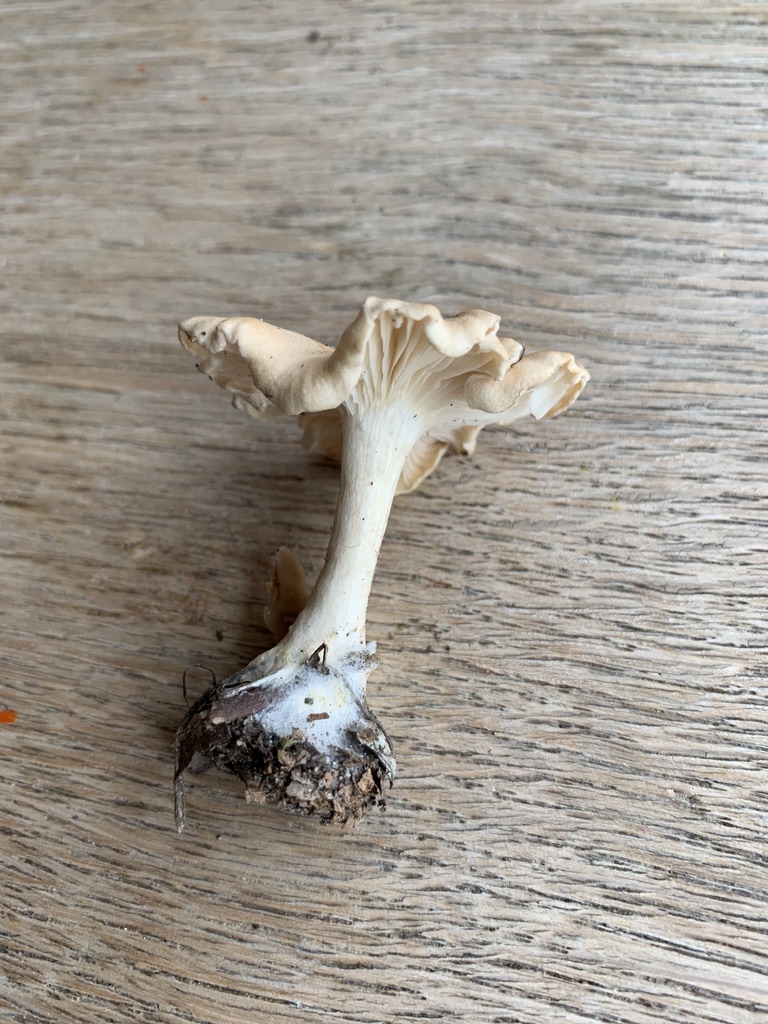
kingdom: Fungi
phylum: Basidiomycota
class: Agaricomycetes
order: Agaricales
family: Tricholomataceae
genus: Infundibulicybe
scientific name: Infundibulicybe gibba
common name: almindelig tragthat
